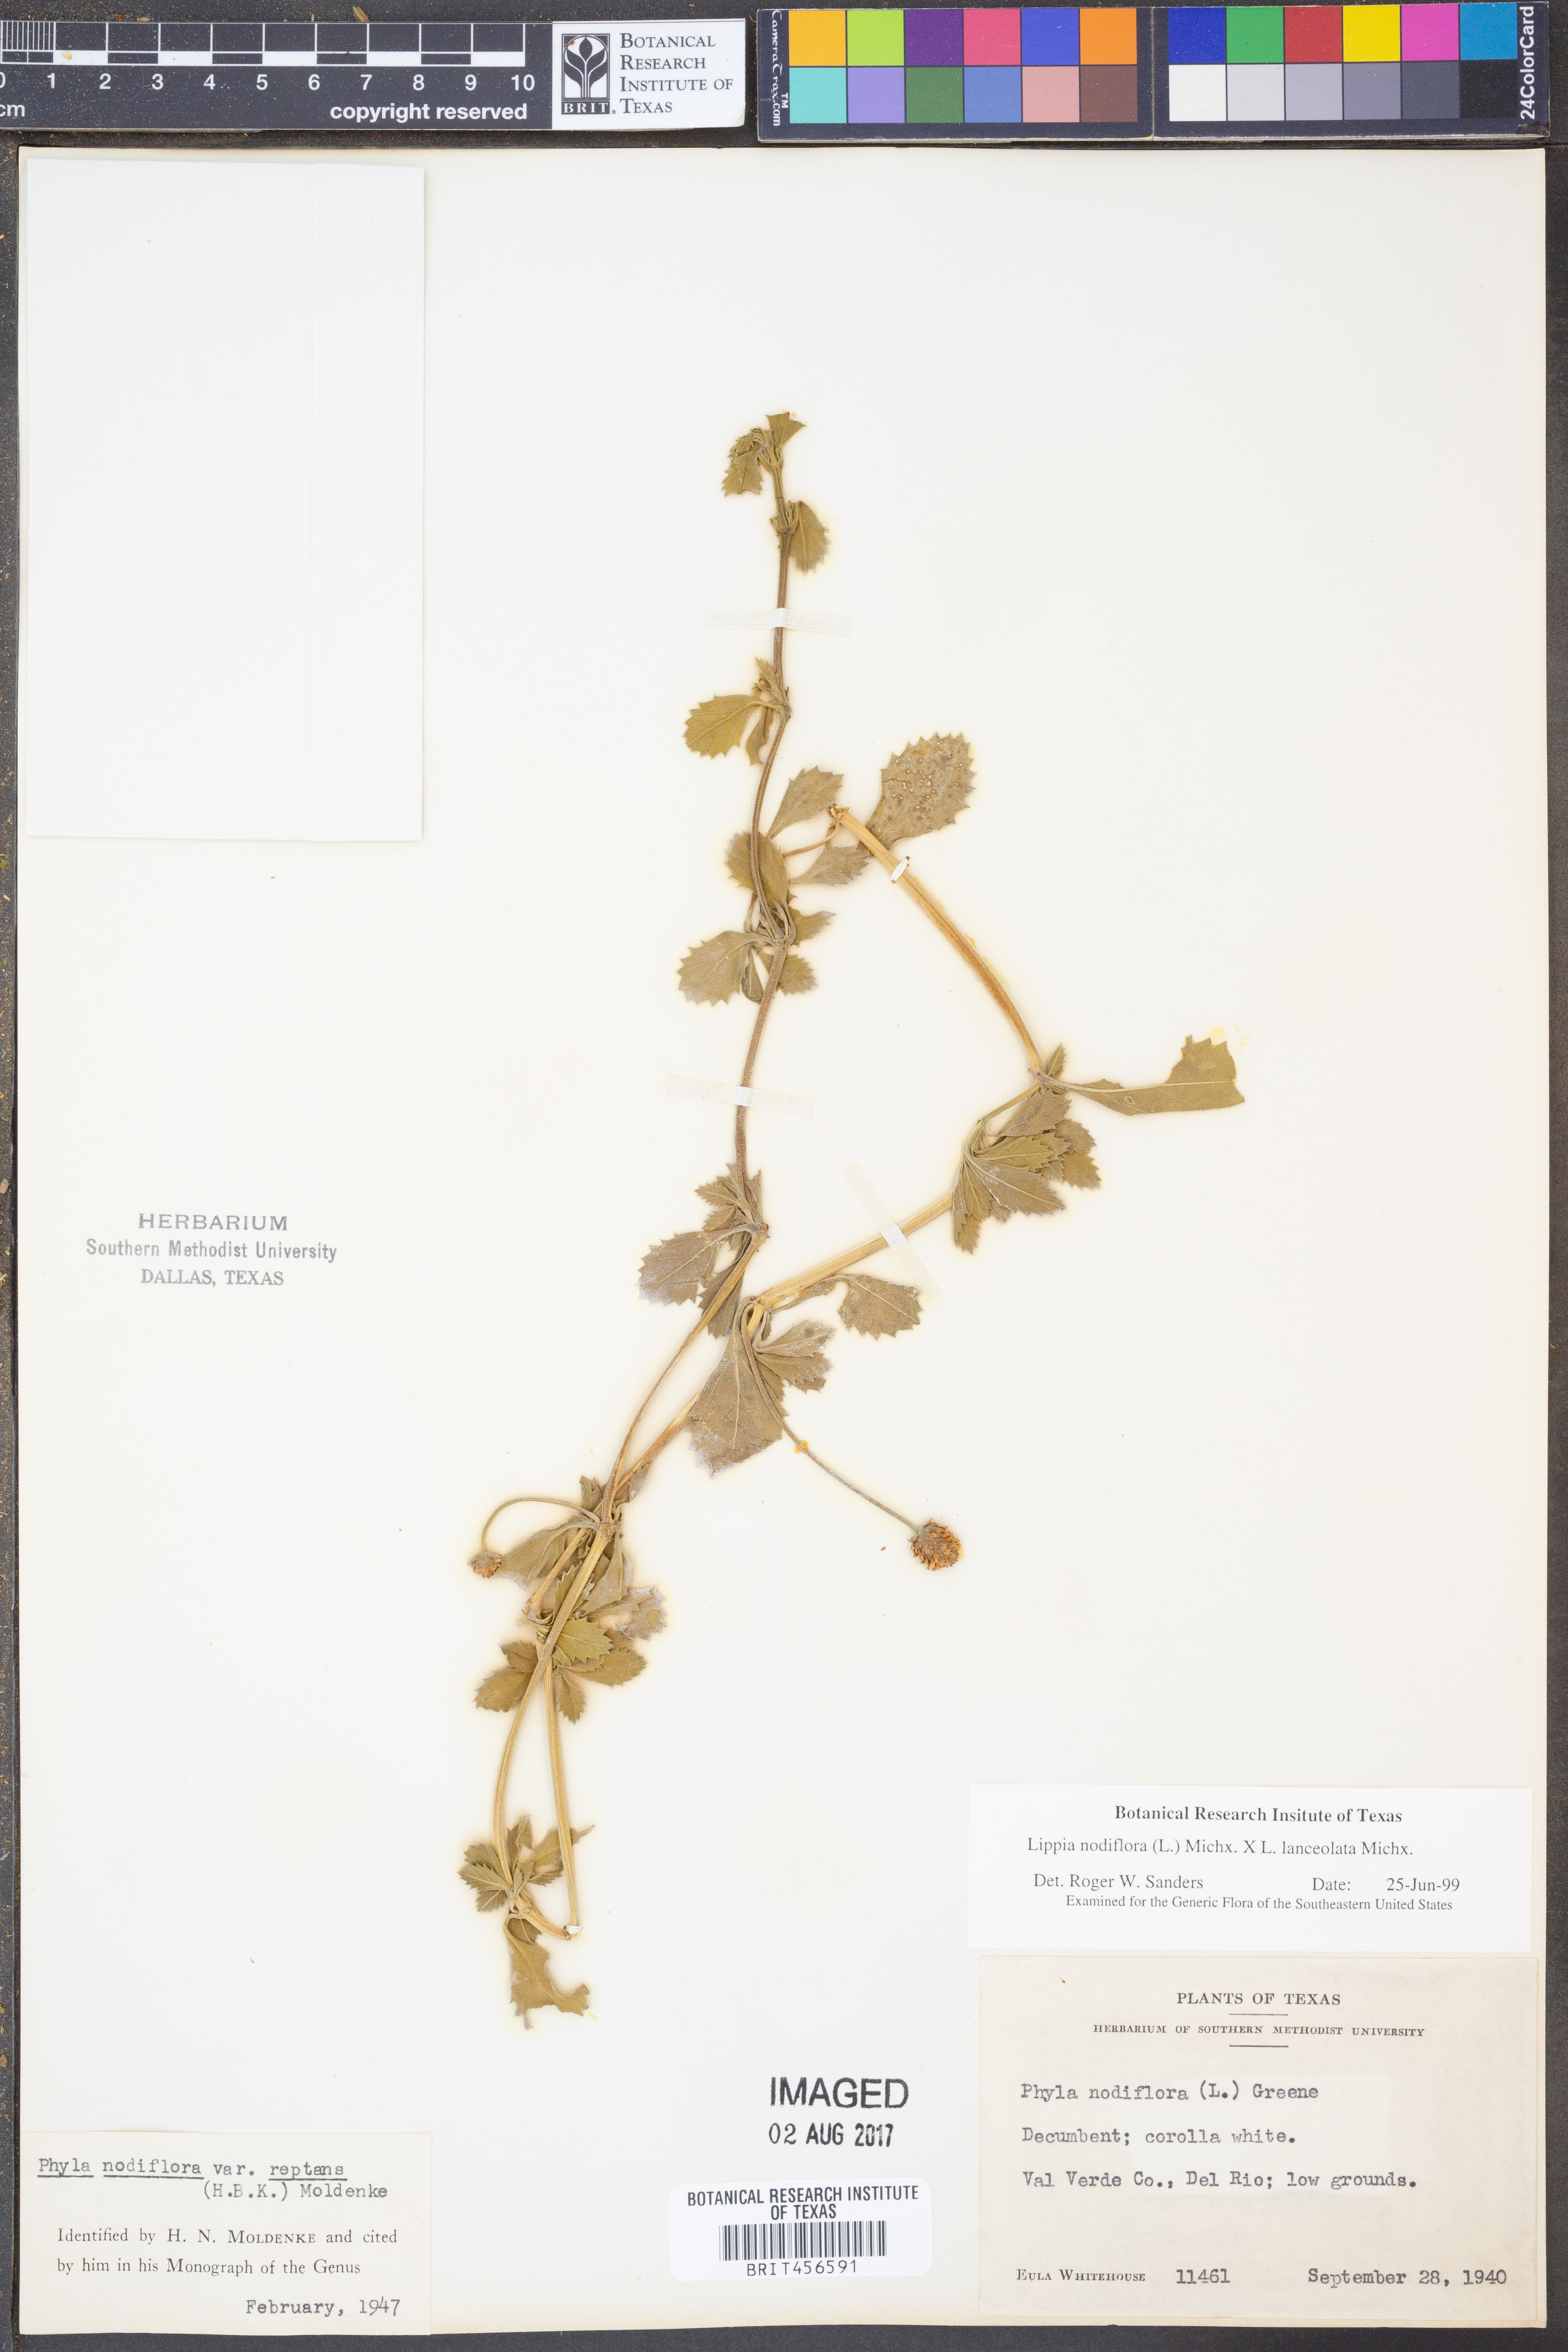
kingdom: Plantae
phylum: Tracheophyta
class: Magnoliopsida
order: Lamiales
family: Verbenaceae
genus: Phyla
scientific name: Phyla nodiflora
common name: Frogfruit
